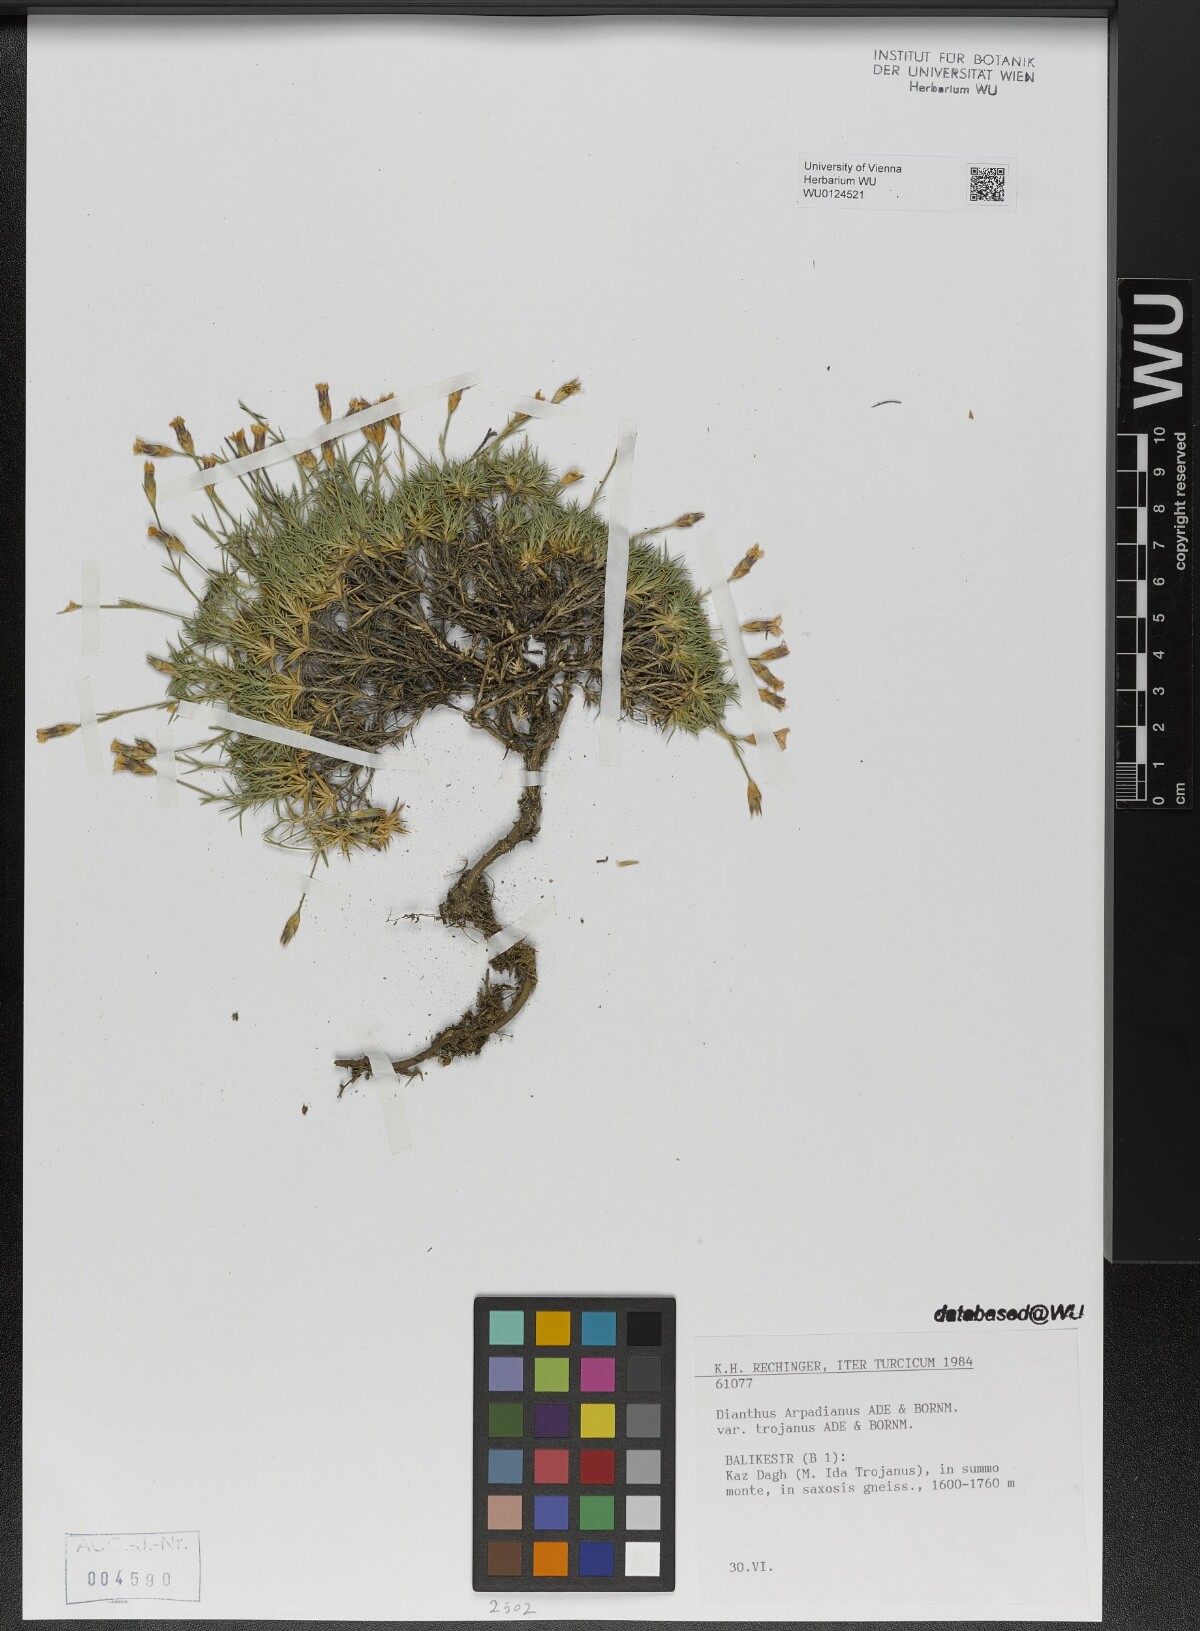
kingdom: Plantae
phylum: Tracheophyta
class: Magnoliopsida
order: Caryophyllales
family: Caryophyllaceae
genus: Dianthus
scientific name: Dianthus arpadianus
